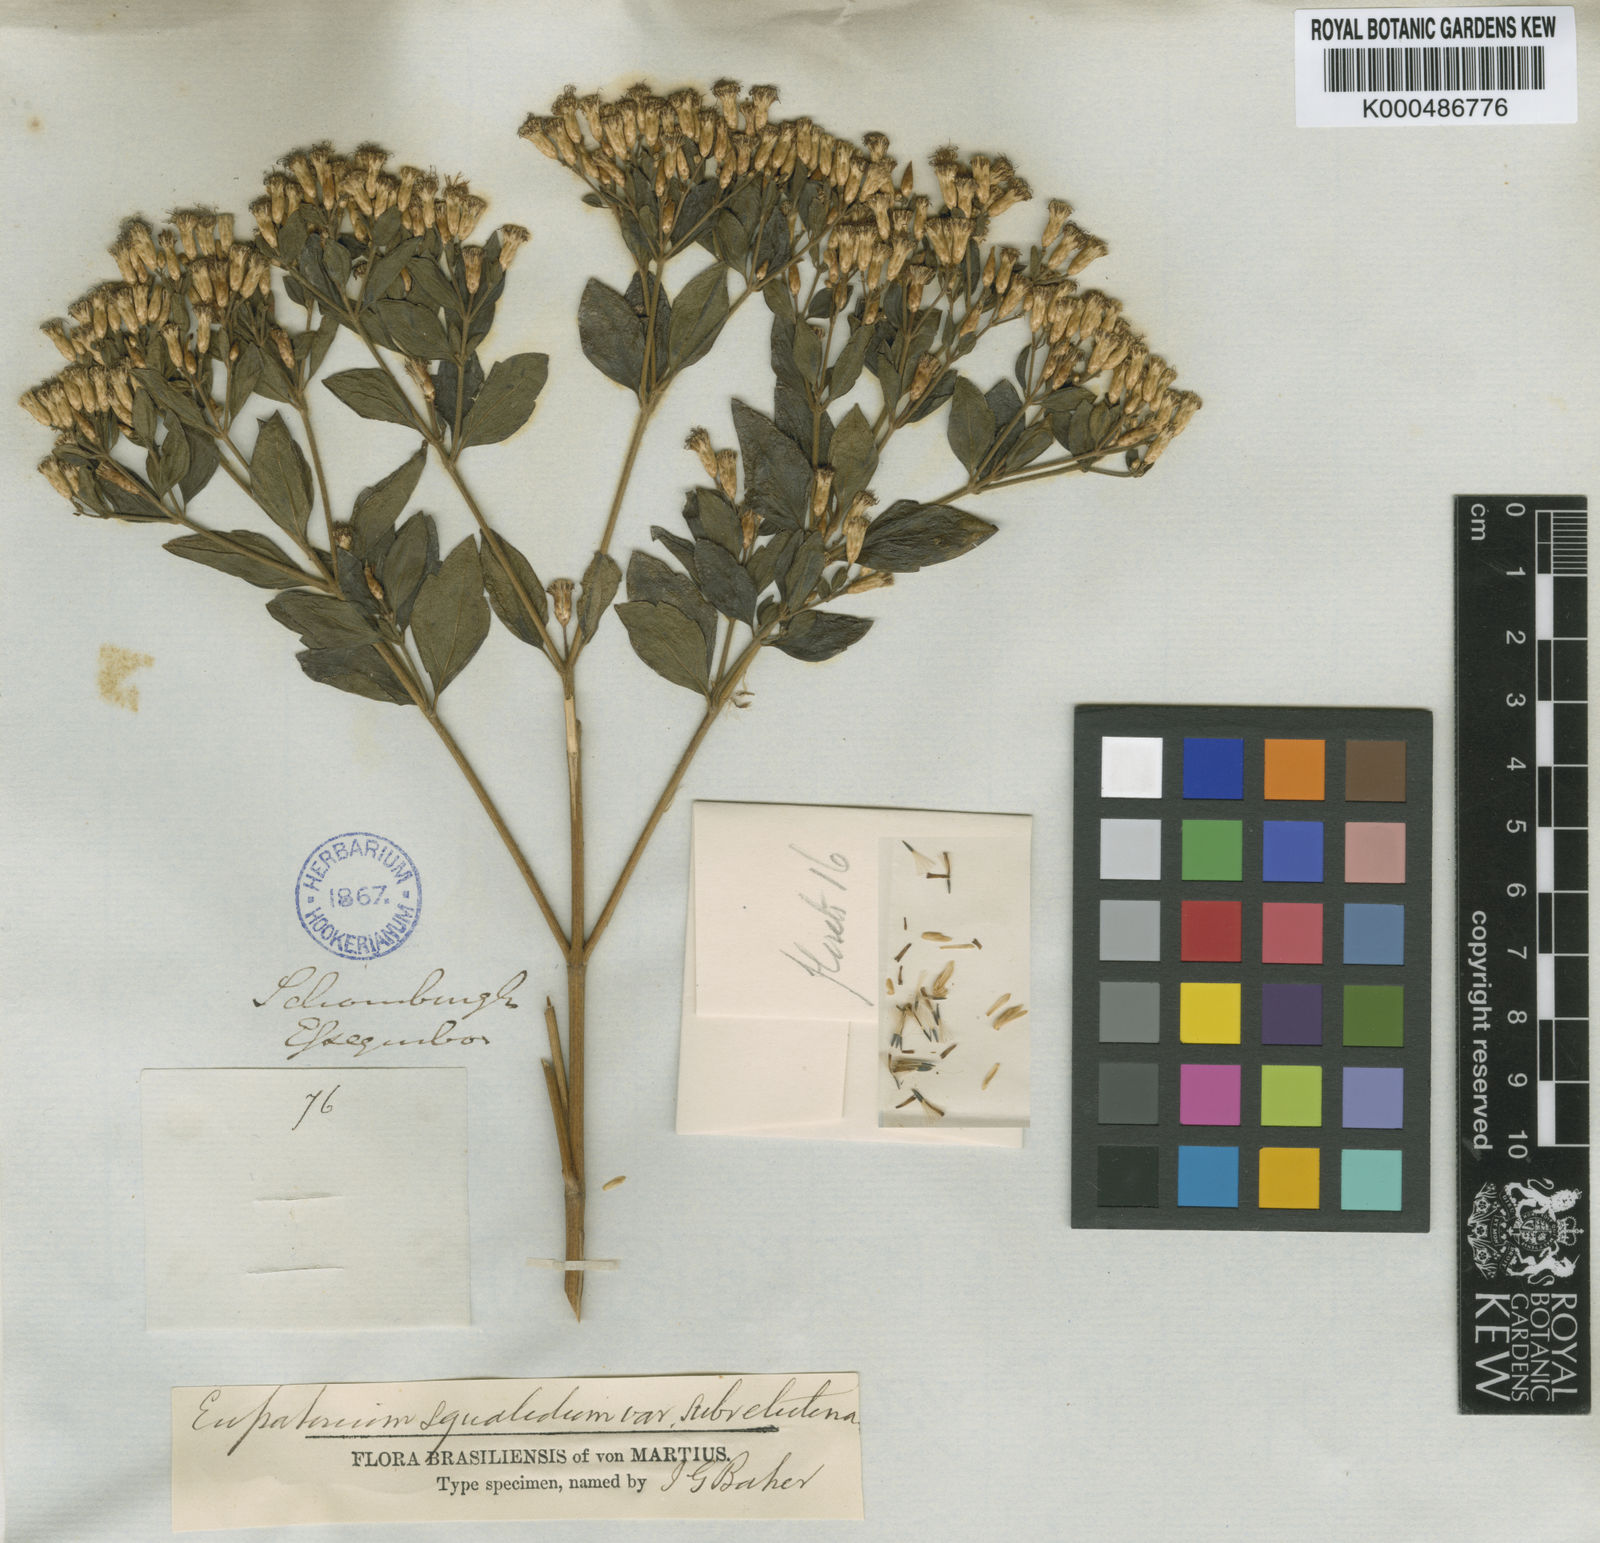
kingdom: Plantae
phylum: Tracheophyta
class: Magnoliopsida
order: Asterales
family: Asteraceae
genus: Chromolaena
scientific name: Chromolaena squalida
